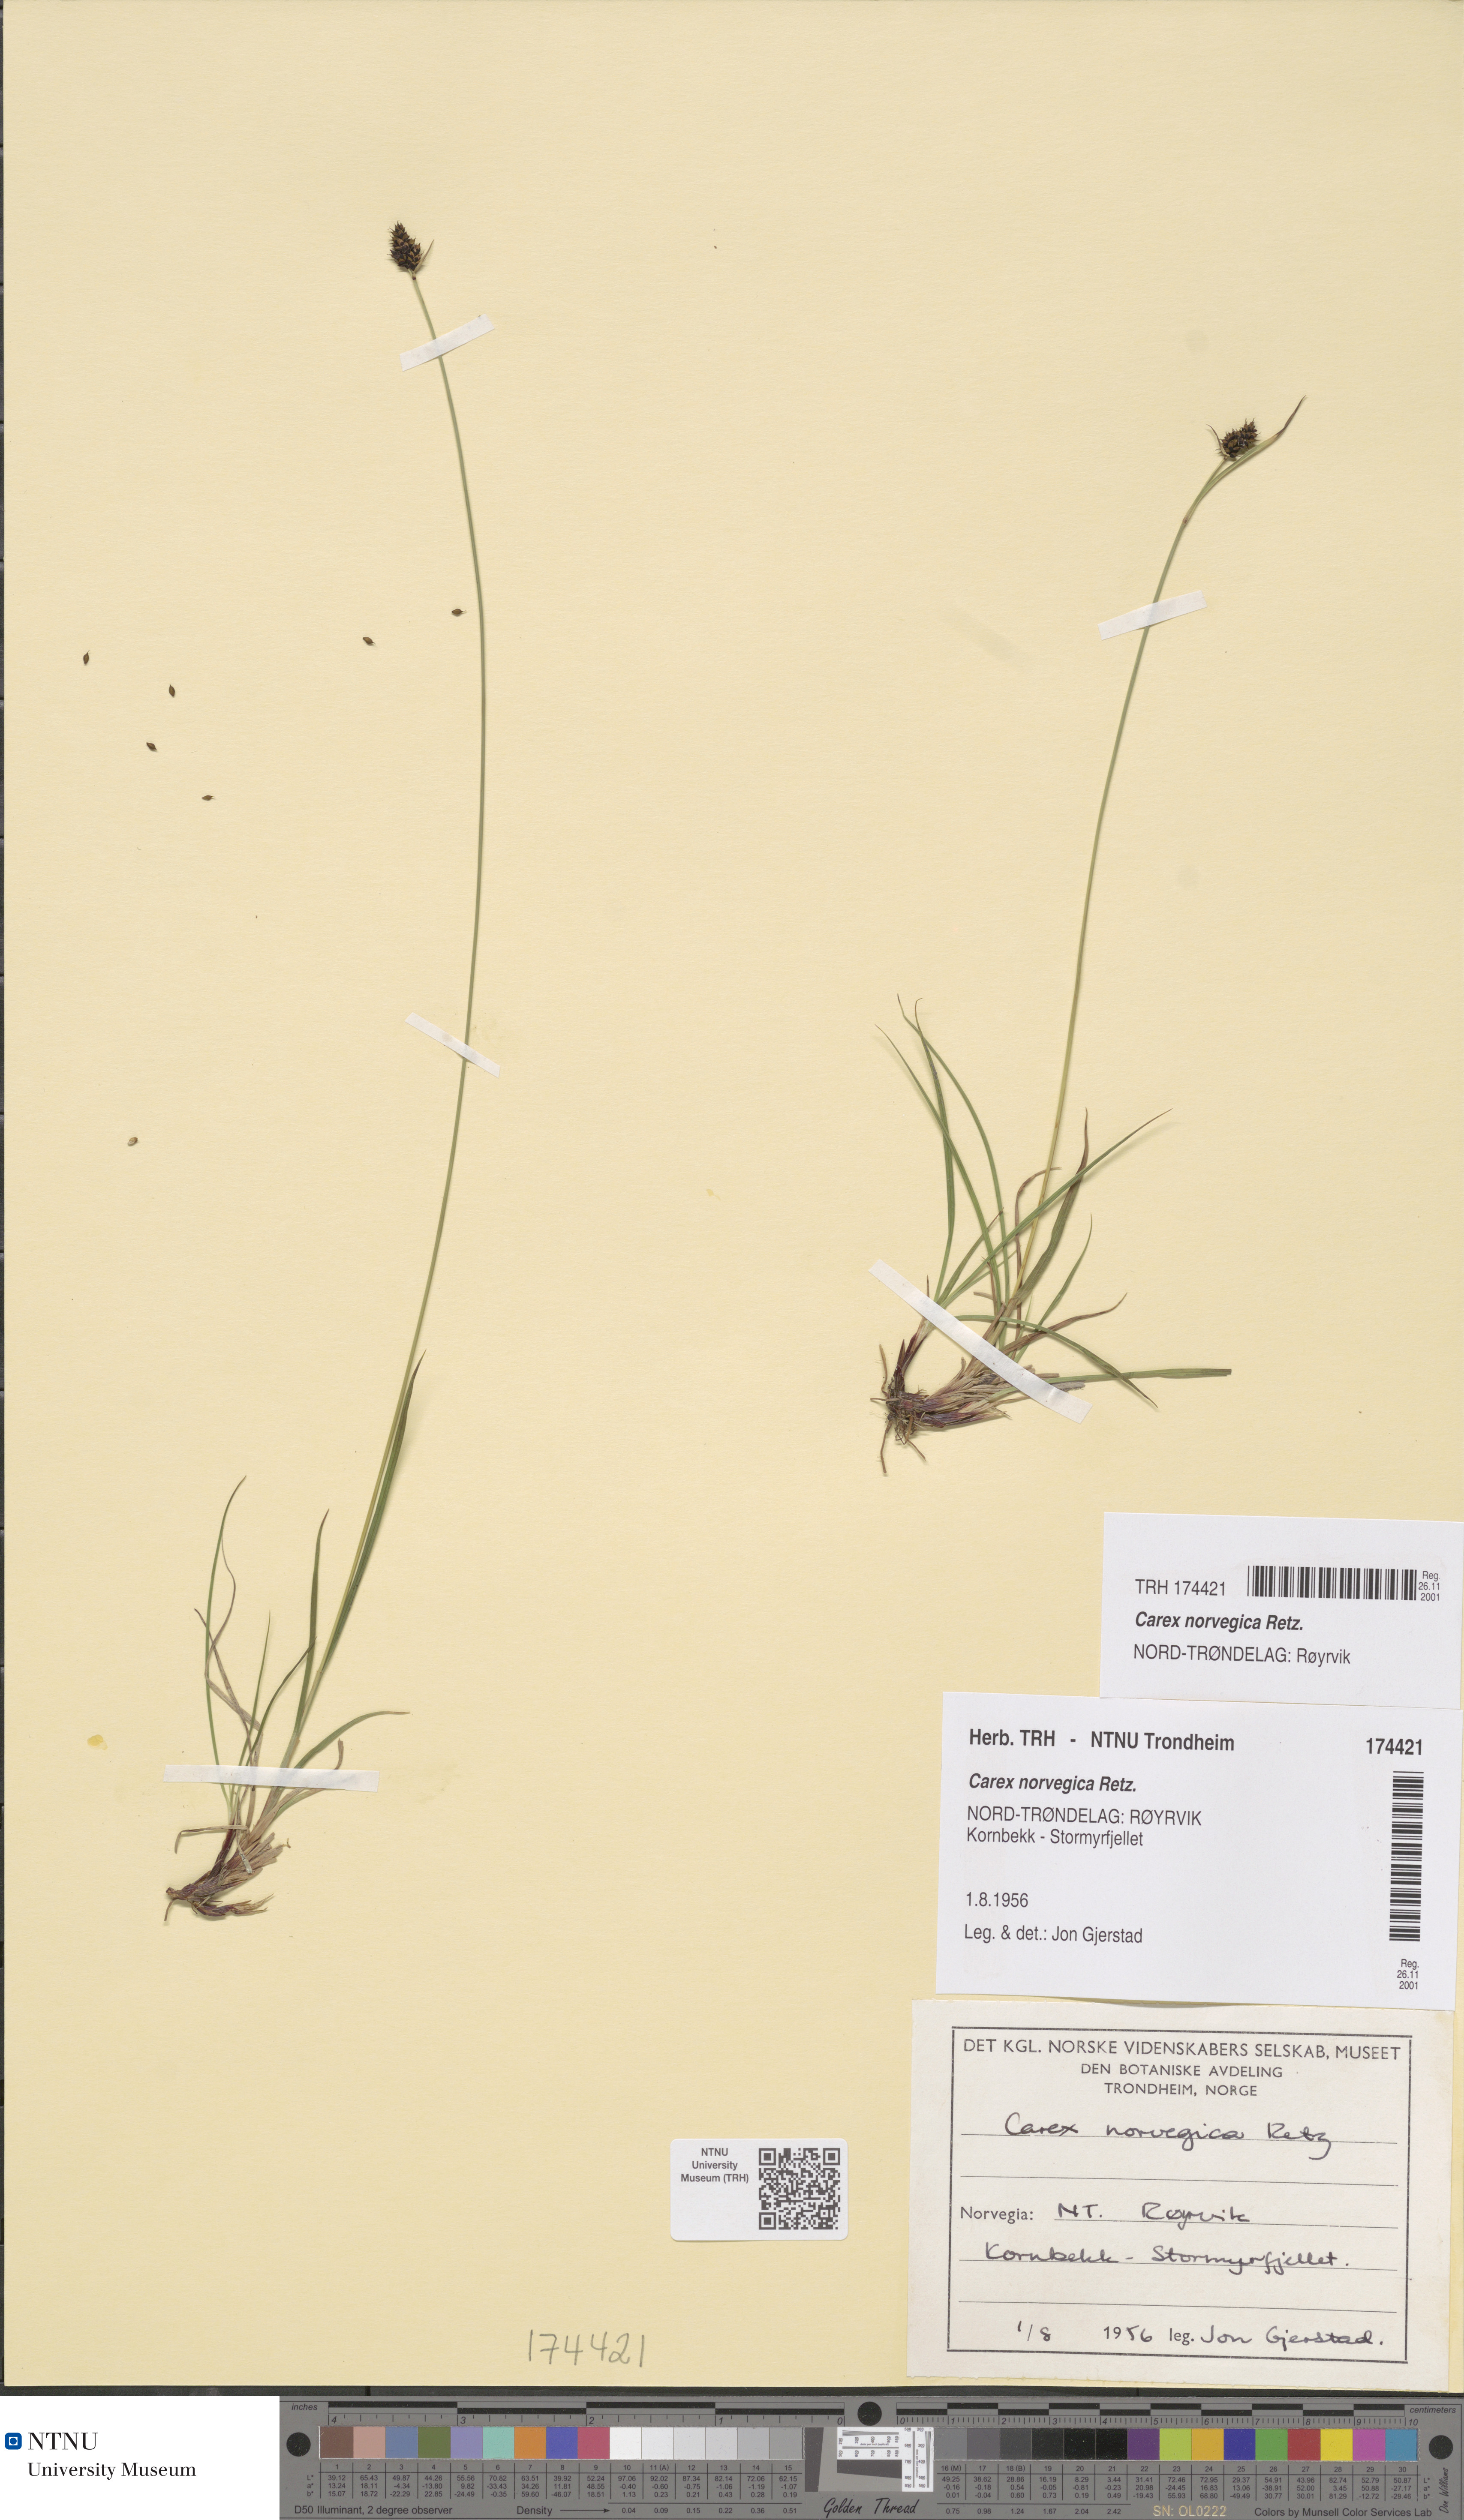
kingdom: Plantae
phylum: Tracheophyta
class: Liliopsida
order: Poales
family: Cyperaceae
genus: Carex
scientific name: Carex norvegica
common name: Close-headed alpine-sedge
